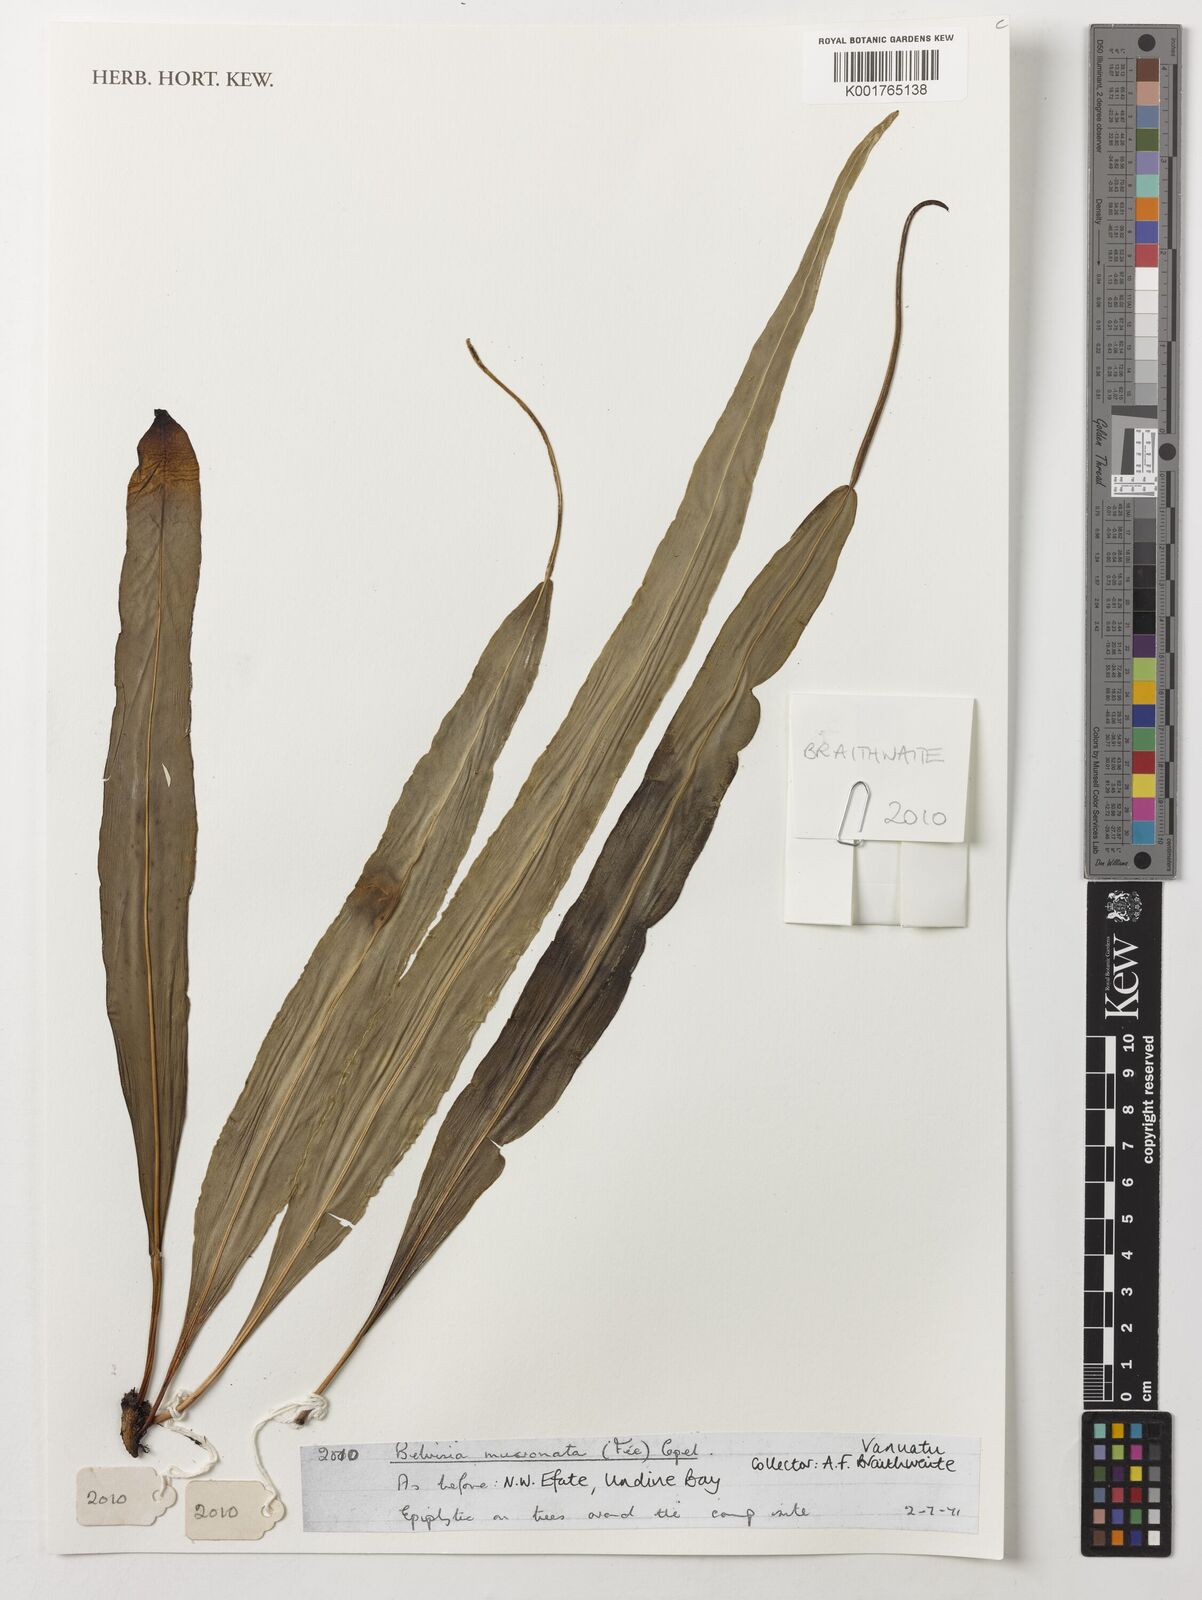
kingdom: Plantae
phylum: Tracheophyta
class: Polypodiopsida
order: Polypodiales
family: Polypodiaceae
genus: Lepisorus
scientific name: Lepisorus mucronatus
